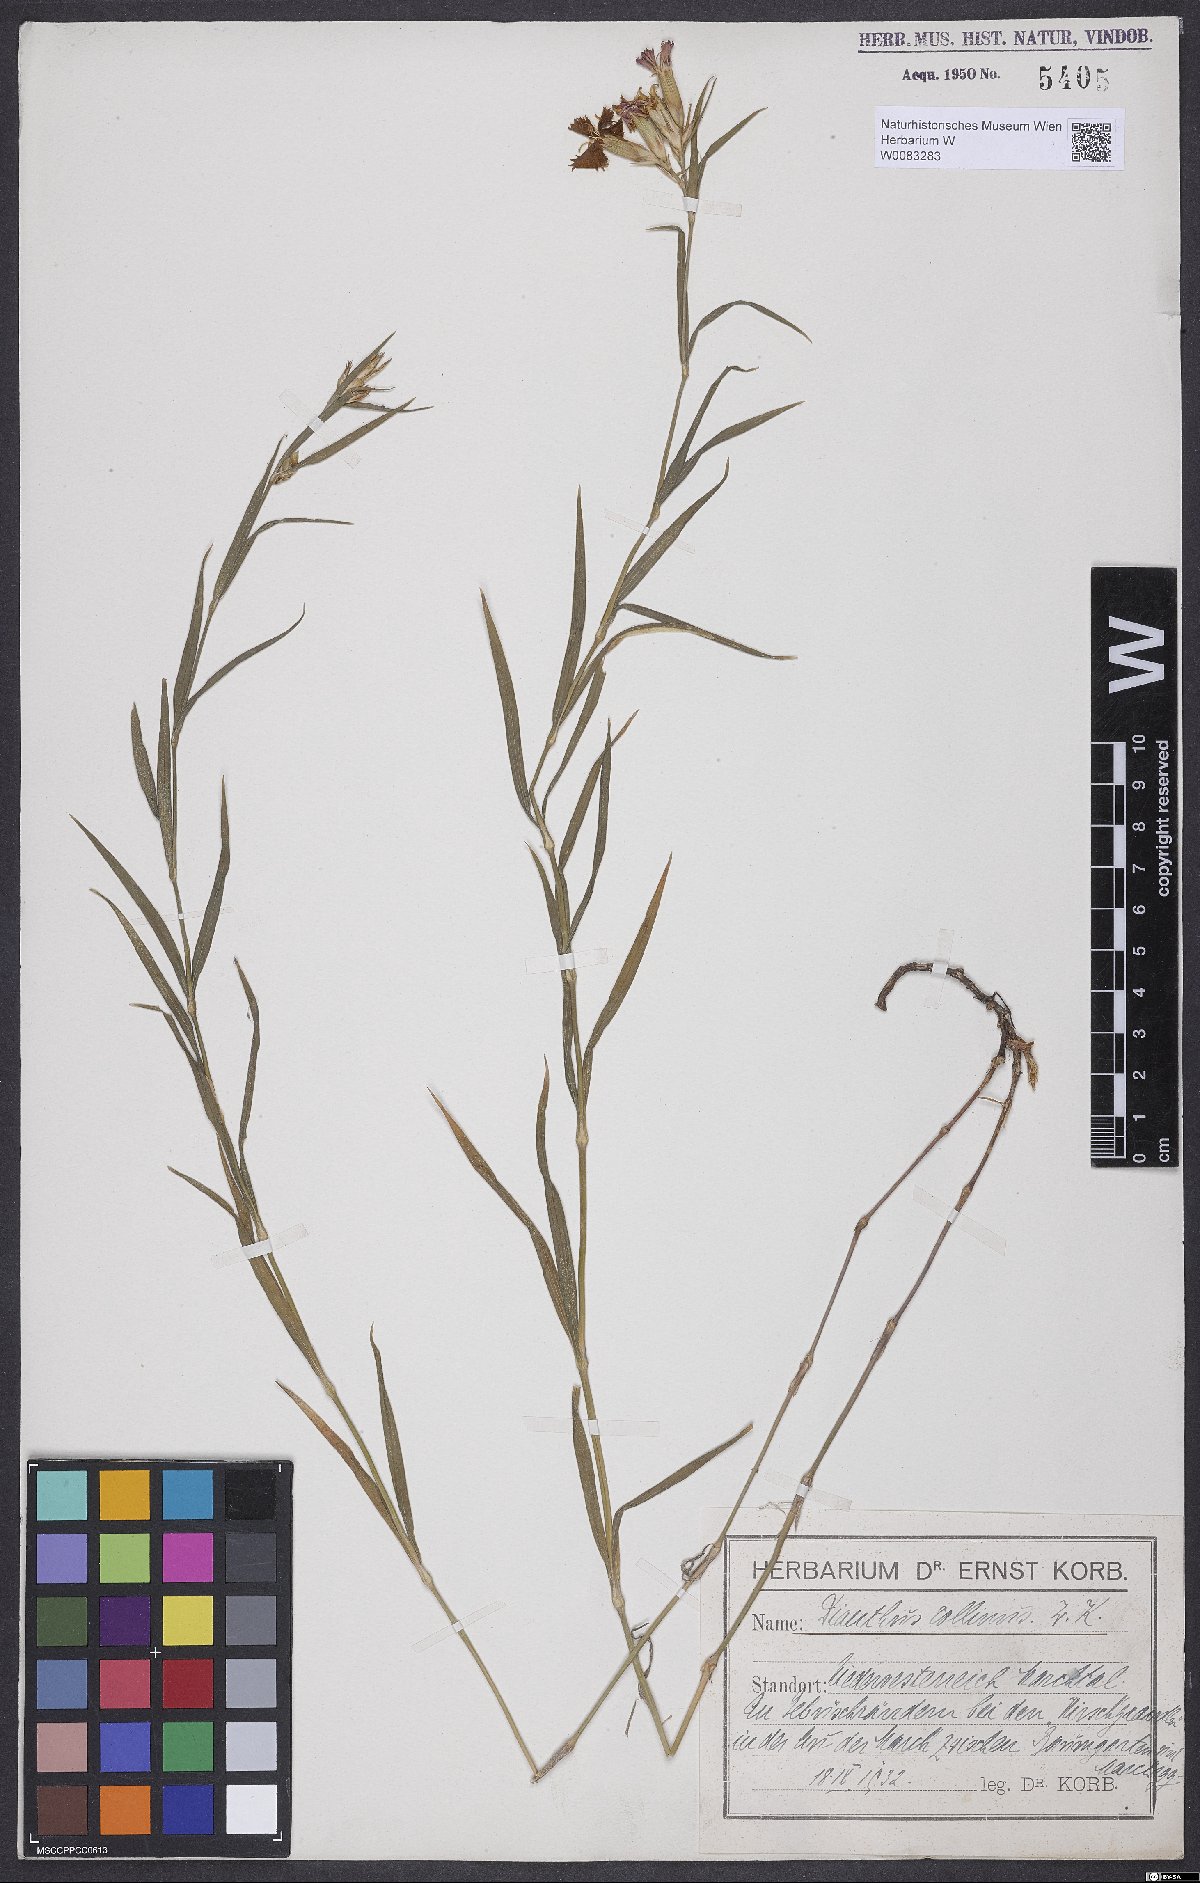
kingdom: Plantae
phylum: Tracheophyta
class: Magnoliopsida
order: Caryophyllales
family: Caryophyllaceae
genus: Dianthus
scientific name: Dianthus collinus
